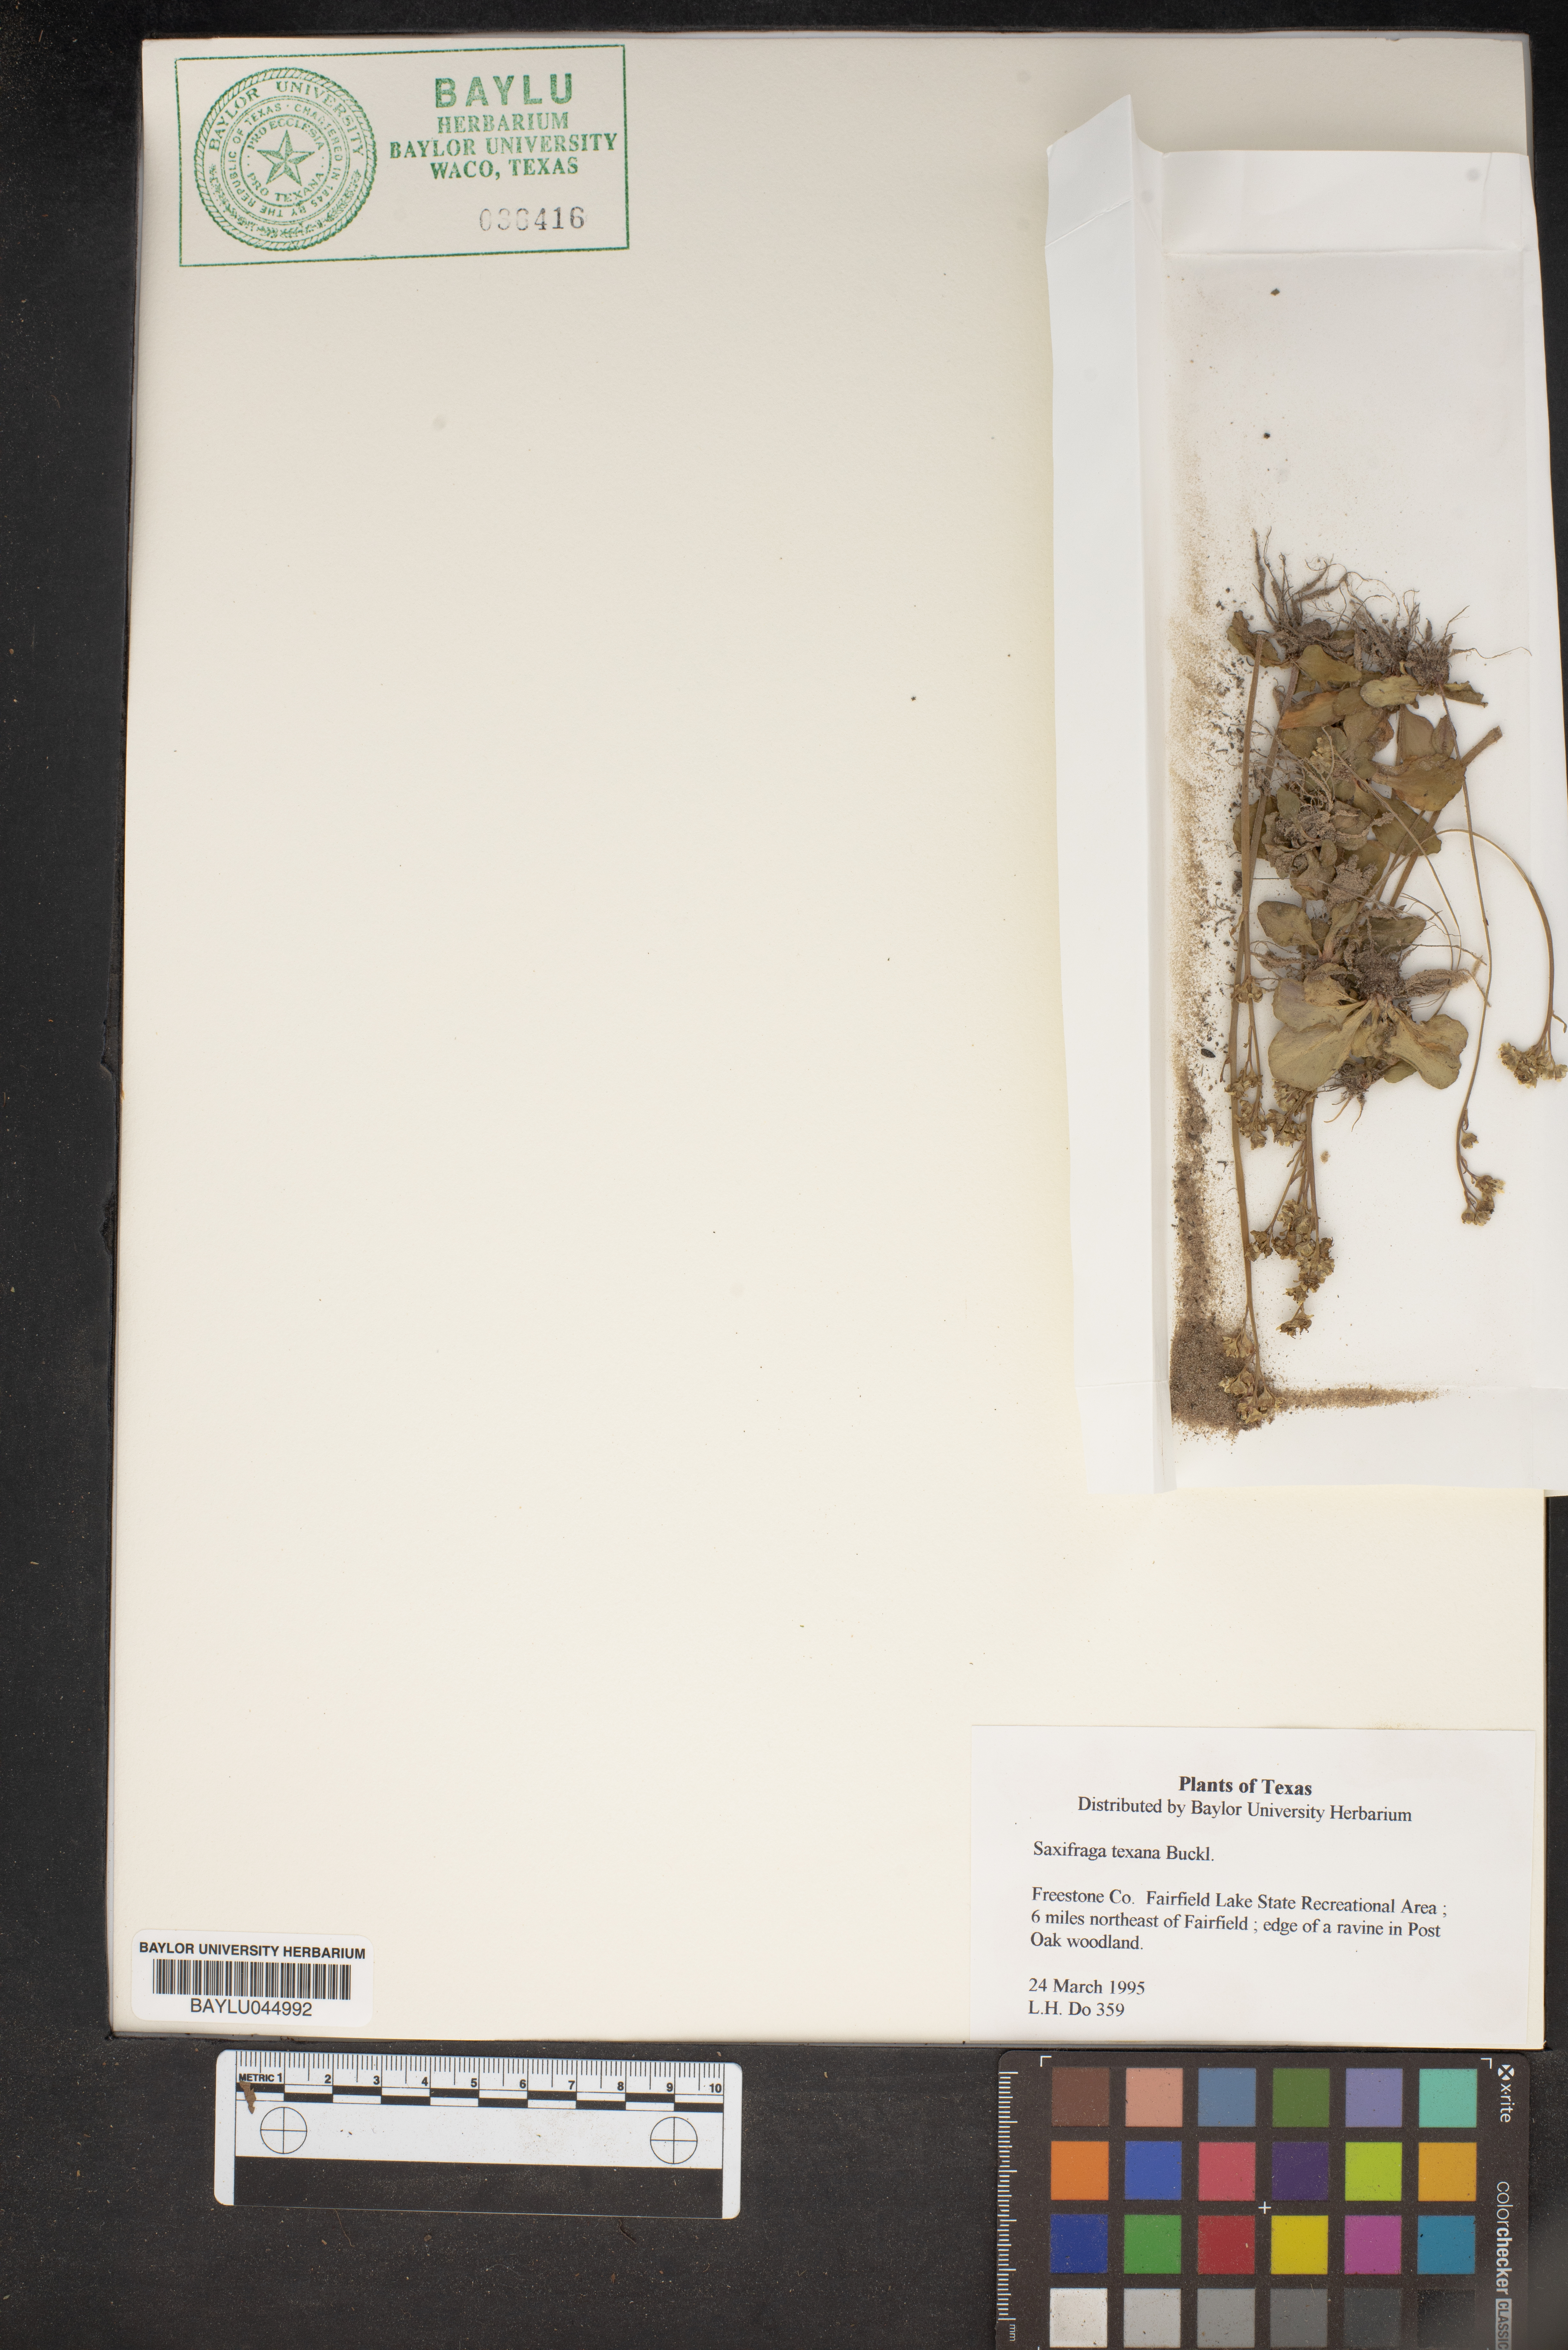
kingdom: Plantae
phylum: Tracheophyta
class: Magnoliopsida
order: Saxifragales
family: Saxifragaceae
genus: Micranthes
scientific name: Micranthes texana
